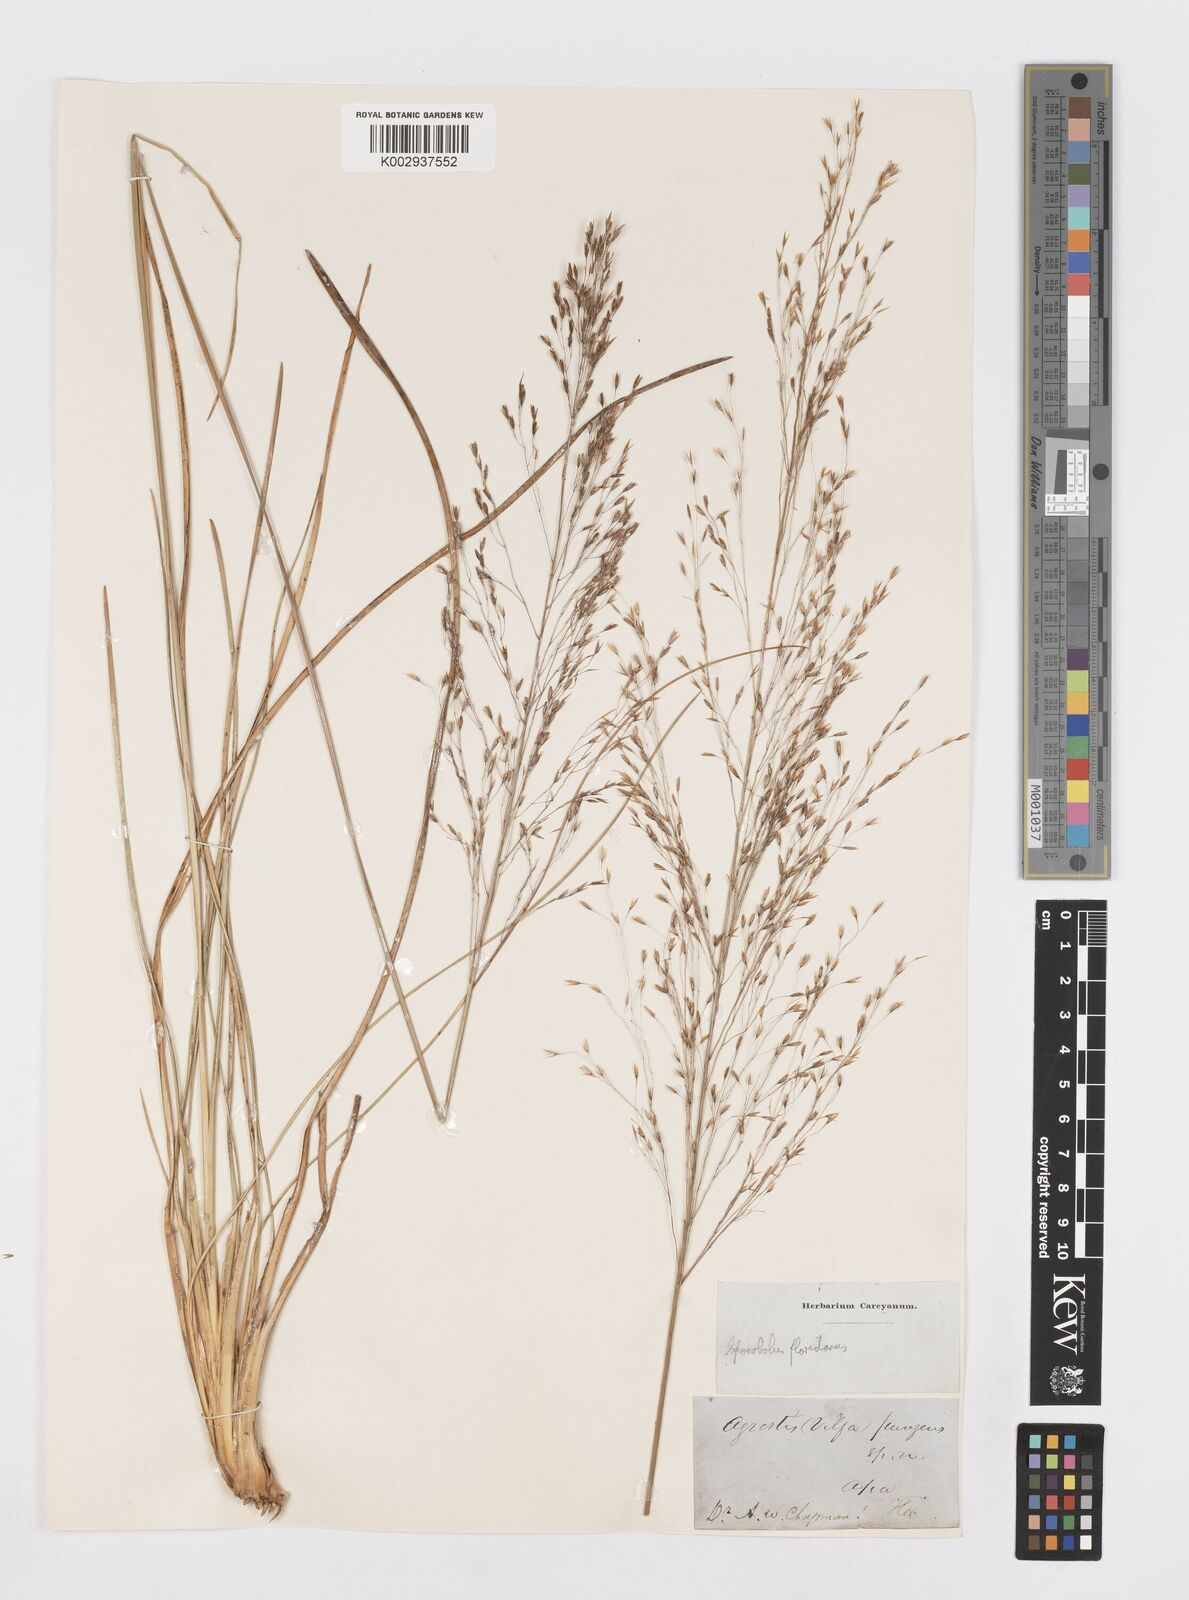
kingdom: Plantae
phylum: Tracheophyta
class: Liliopsida
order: Poales
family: Poaceae
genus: Sporobolus
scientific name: Sporobolus floridanus
